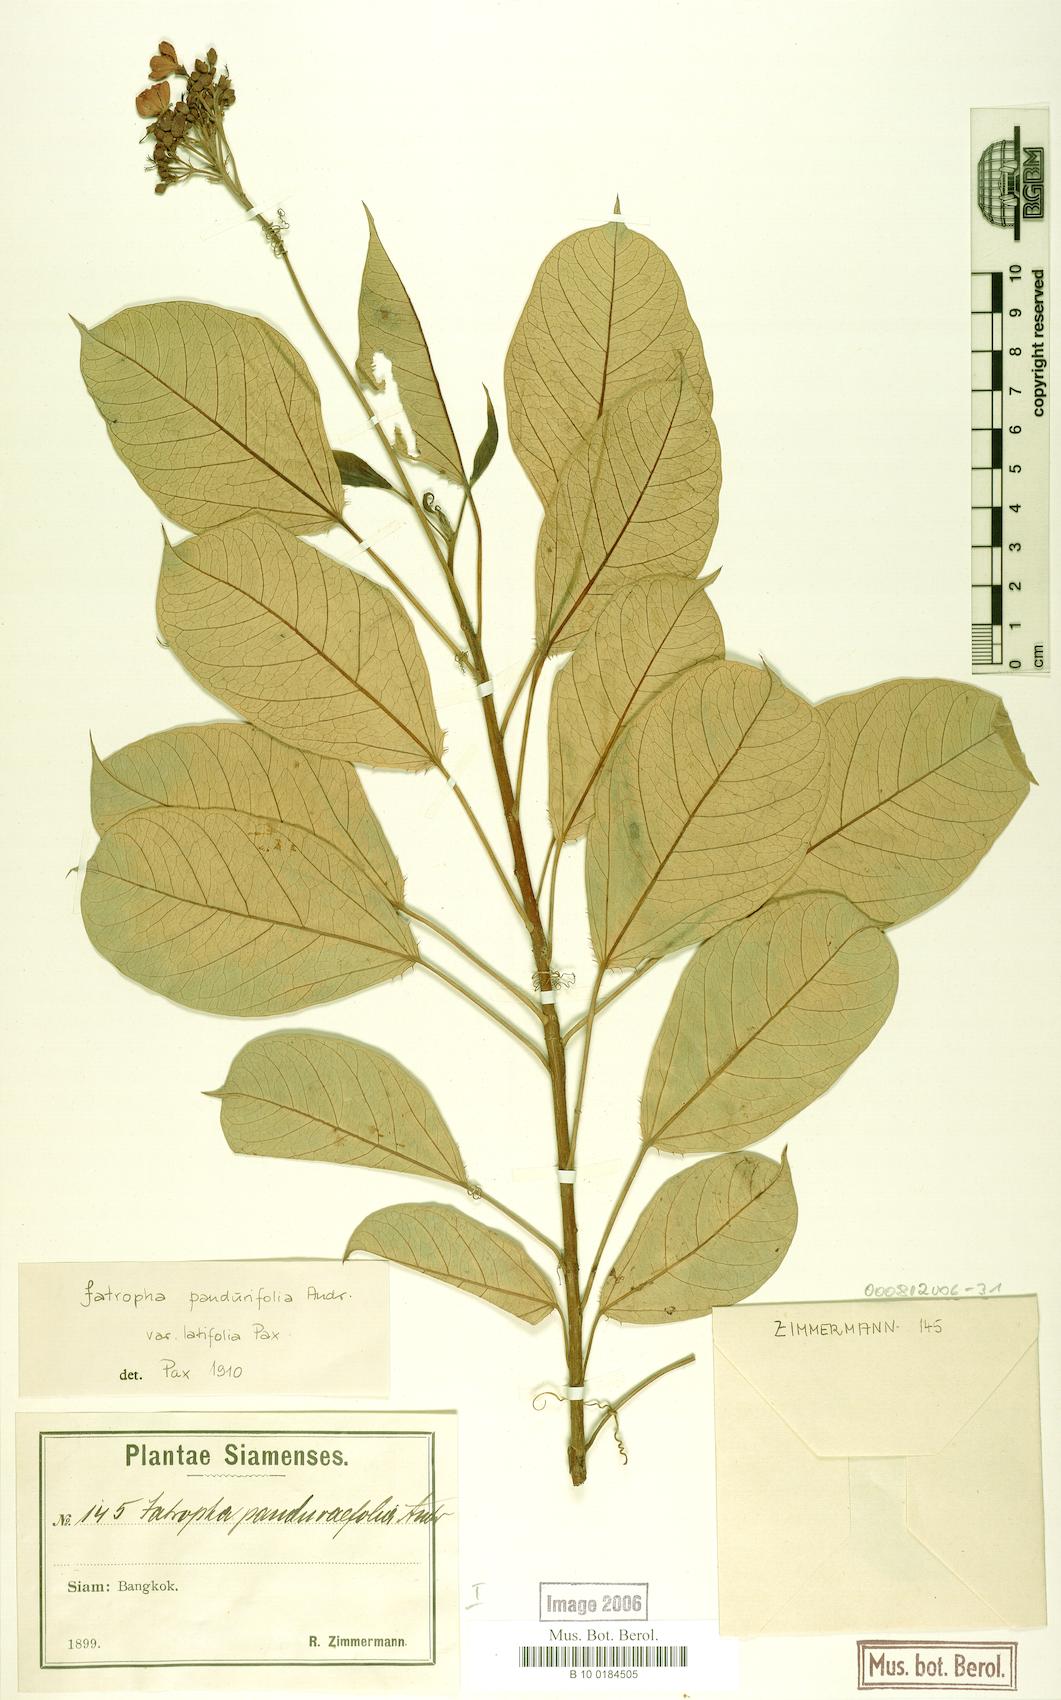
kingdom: Plantae
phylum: Tracheophyta
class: Magnoliopsida
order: Malpighiales
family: Euphorbiaceae
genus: Jatropha
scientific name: Jatropha integerrima
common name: Peregrina
